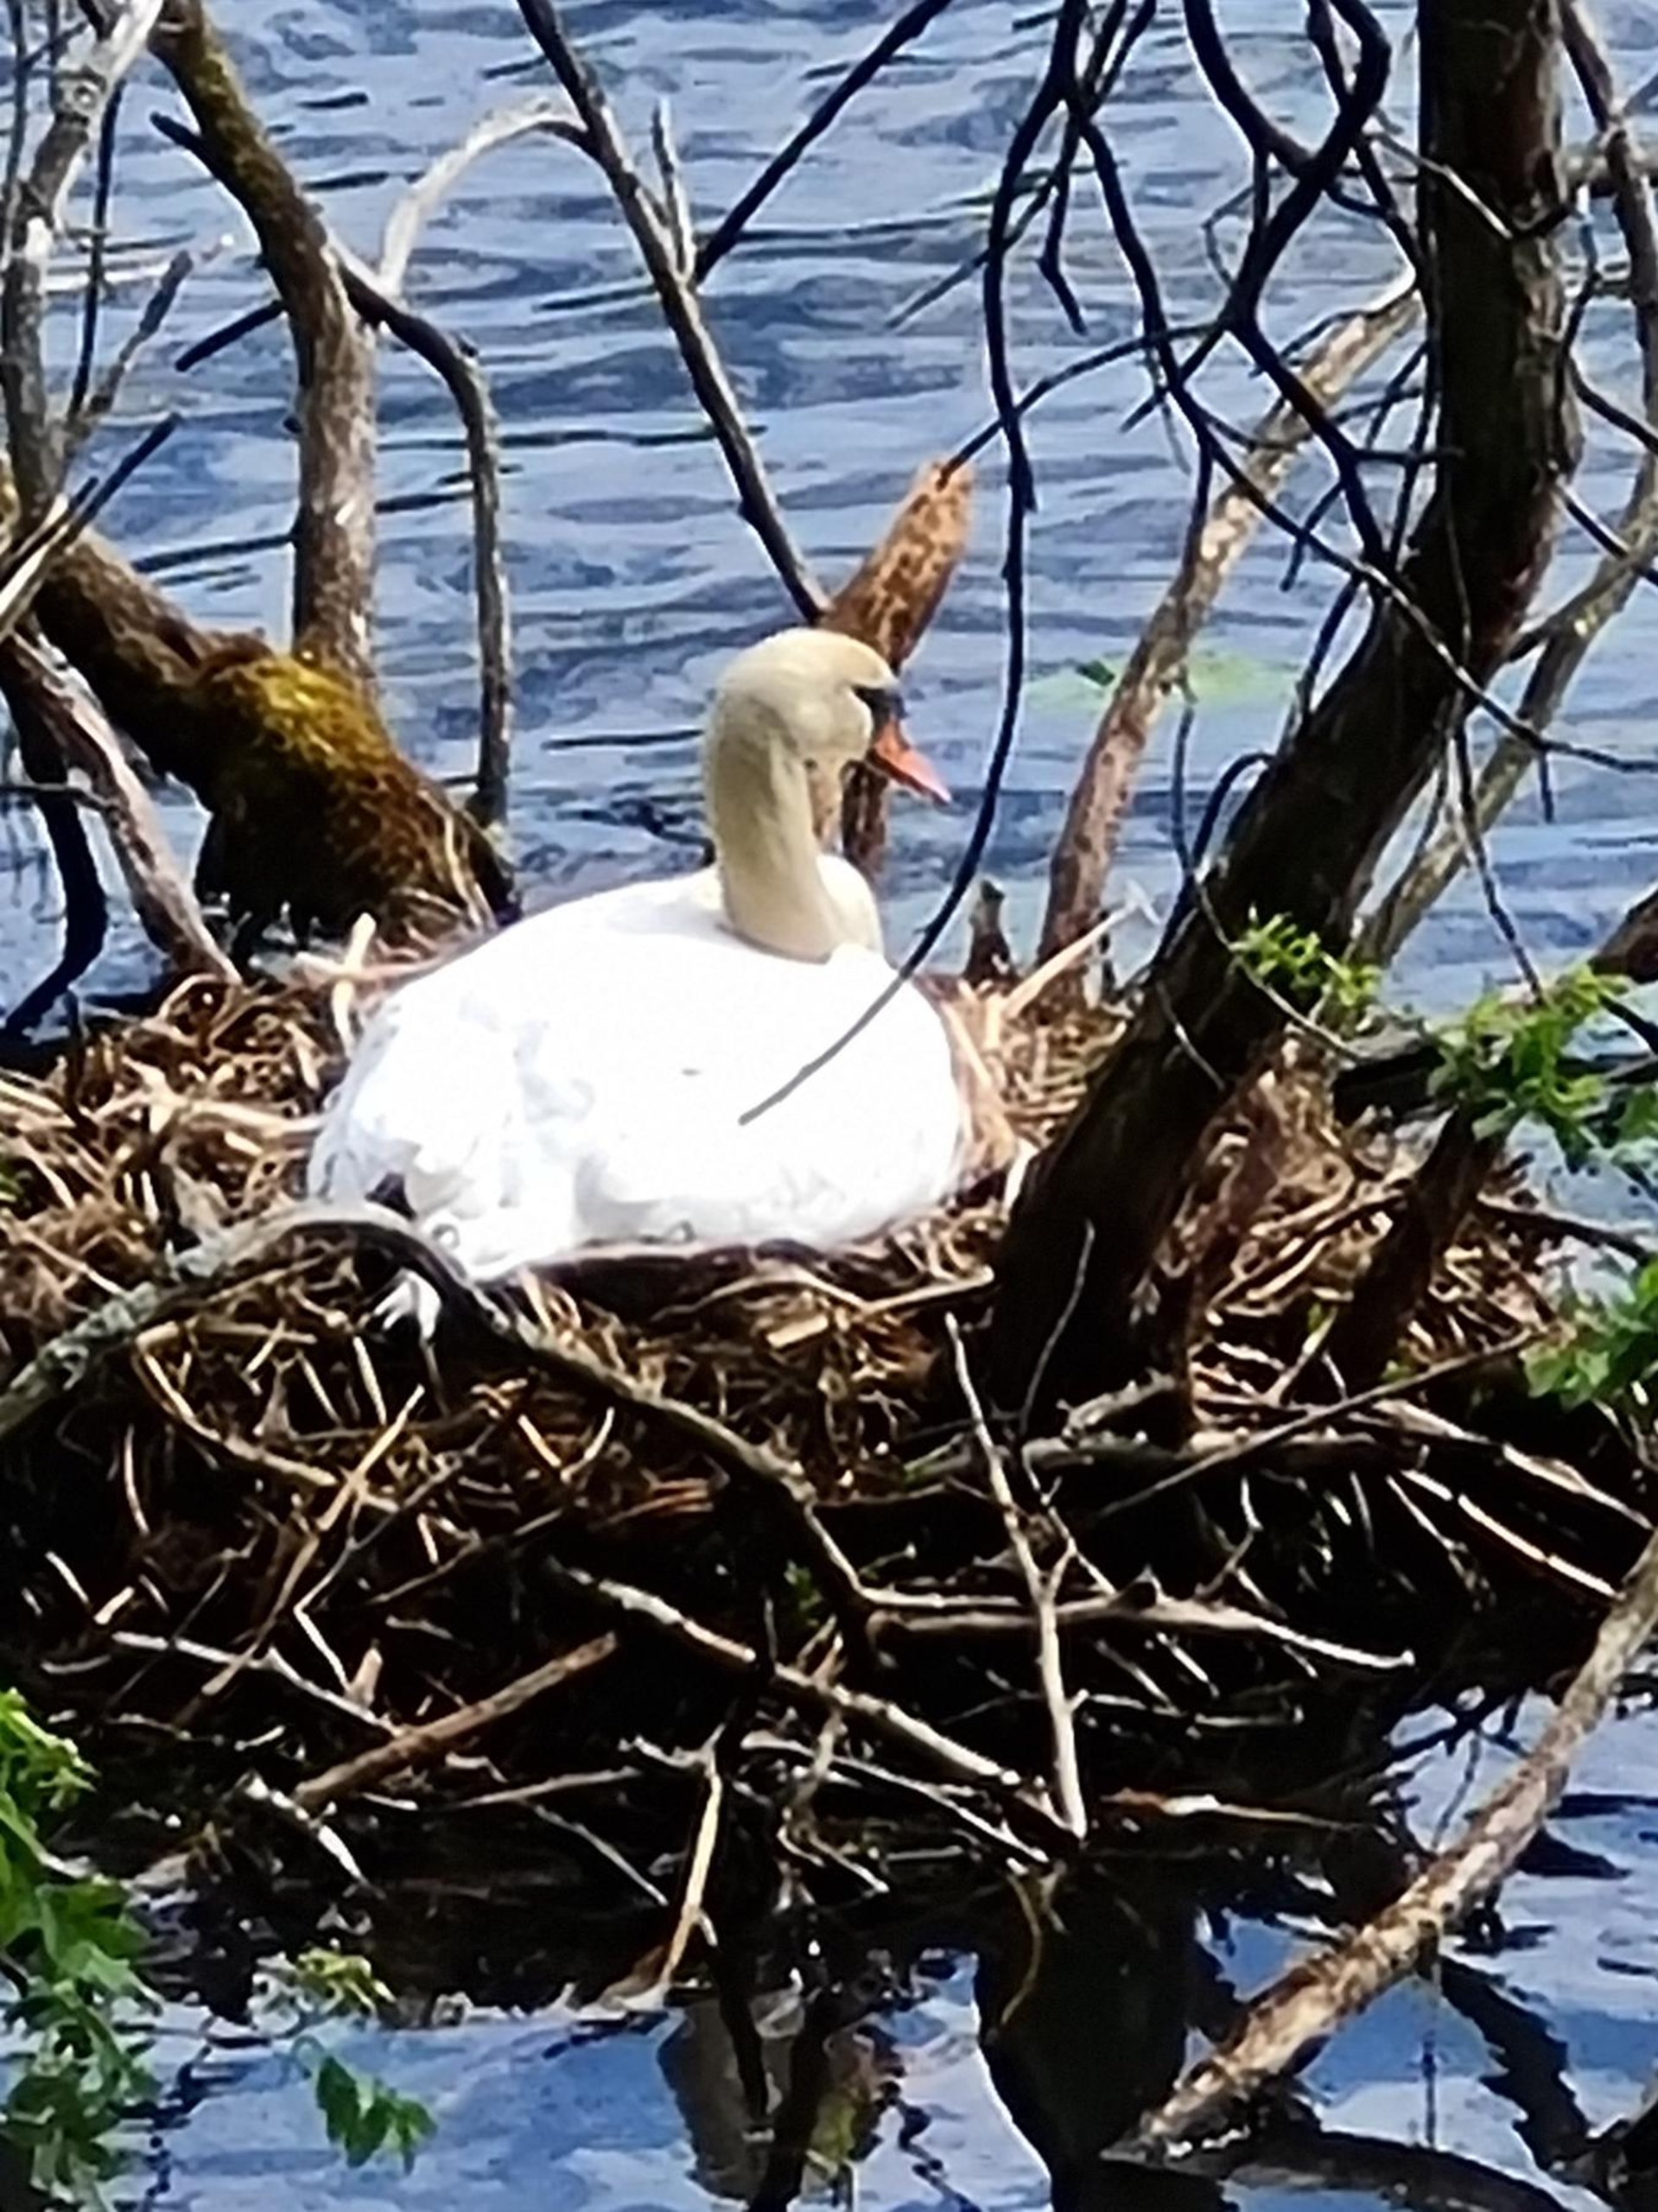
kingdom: Animalia
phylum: Chordata
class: Aves
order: Anseriformes
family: Anatidae
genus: Cygnus
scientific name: Cygnus olor
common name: Knopsvane
